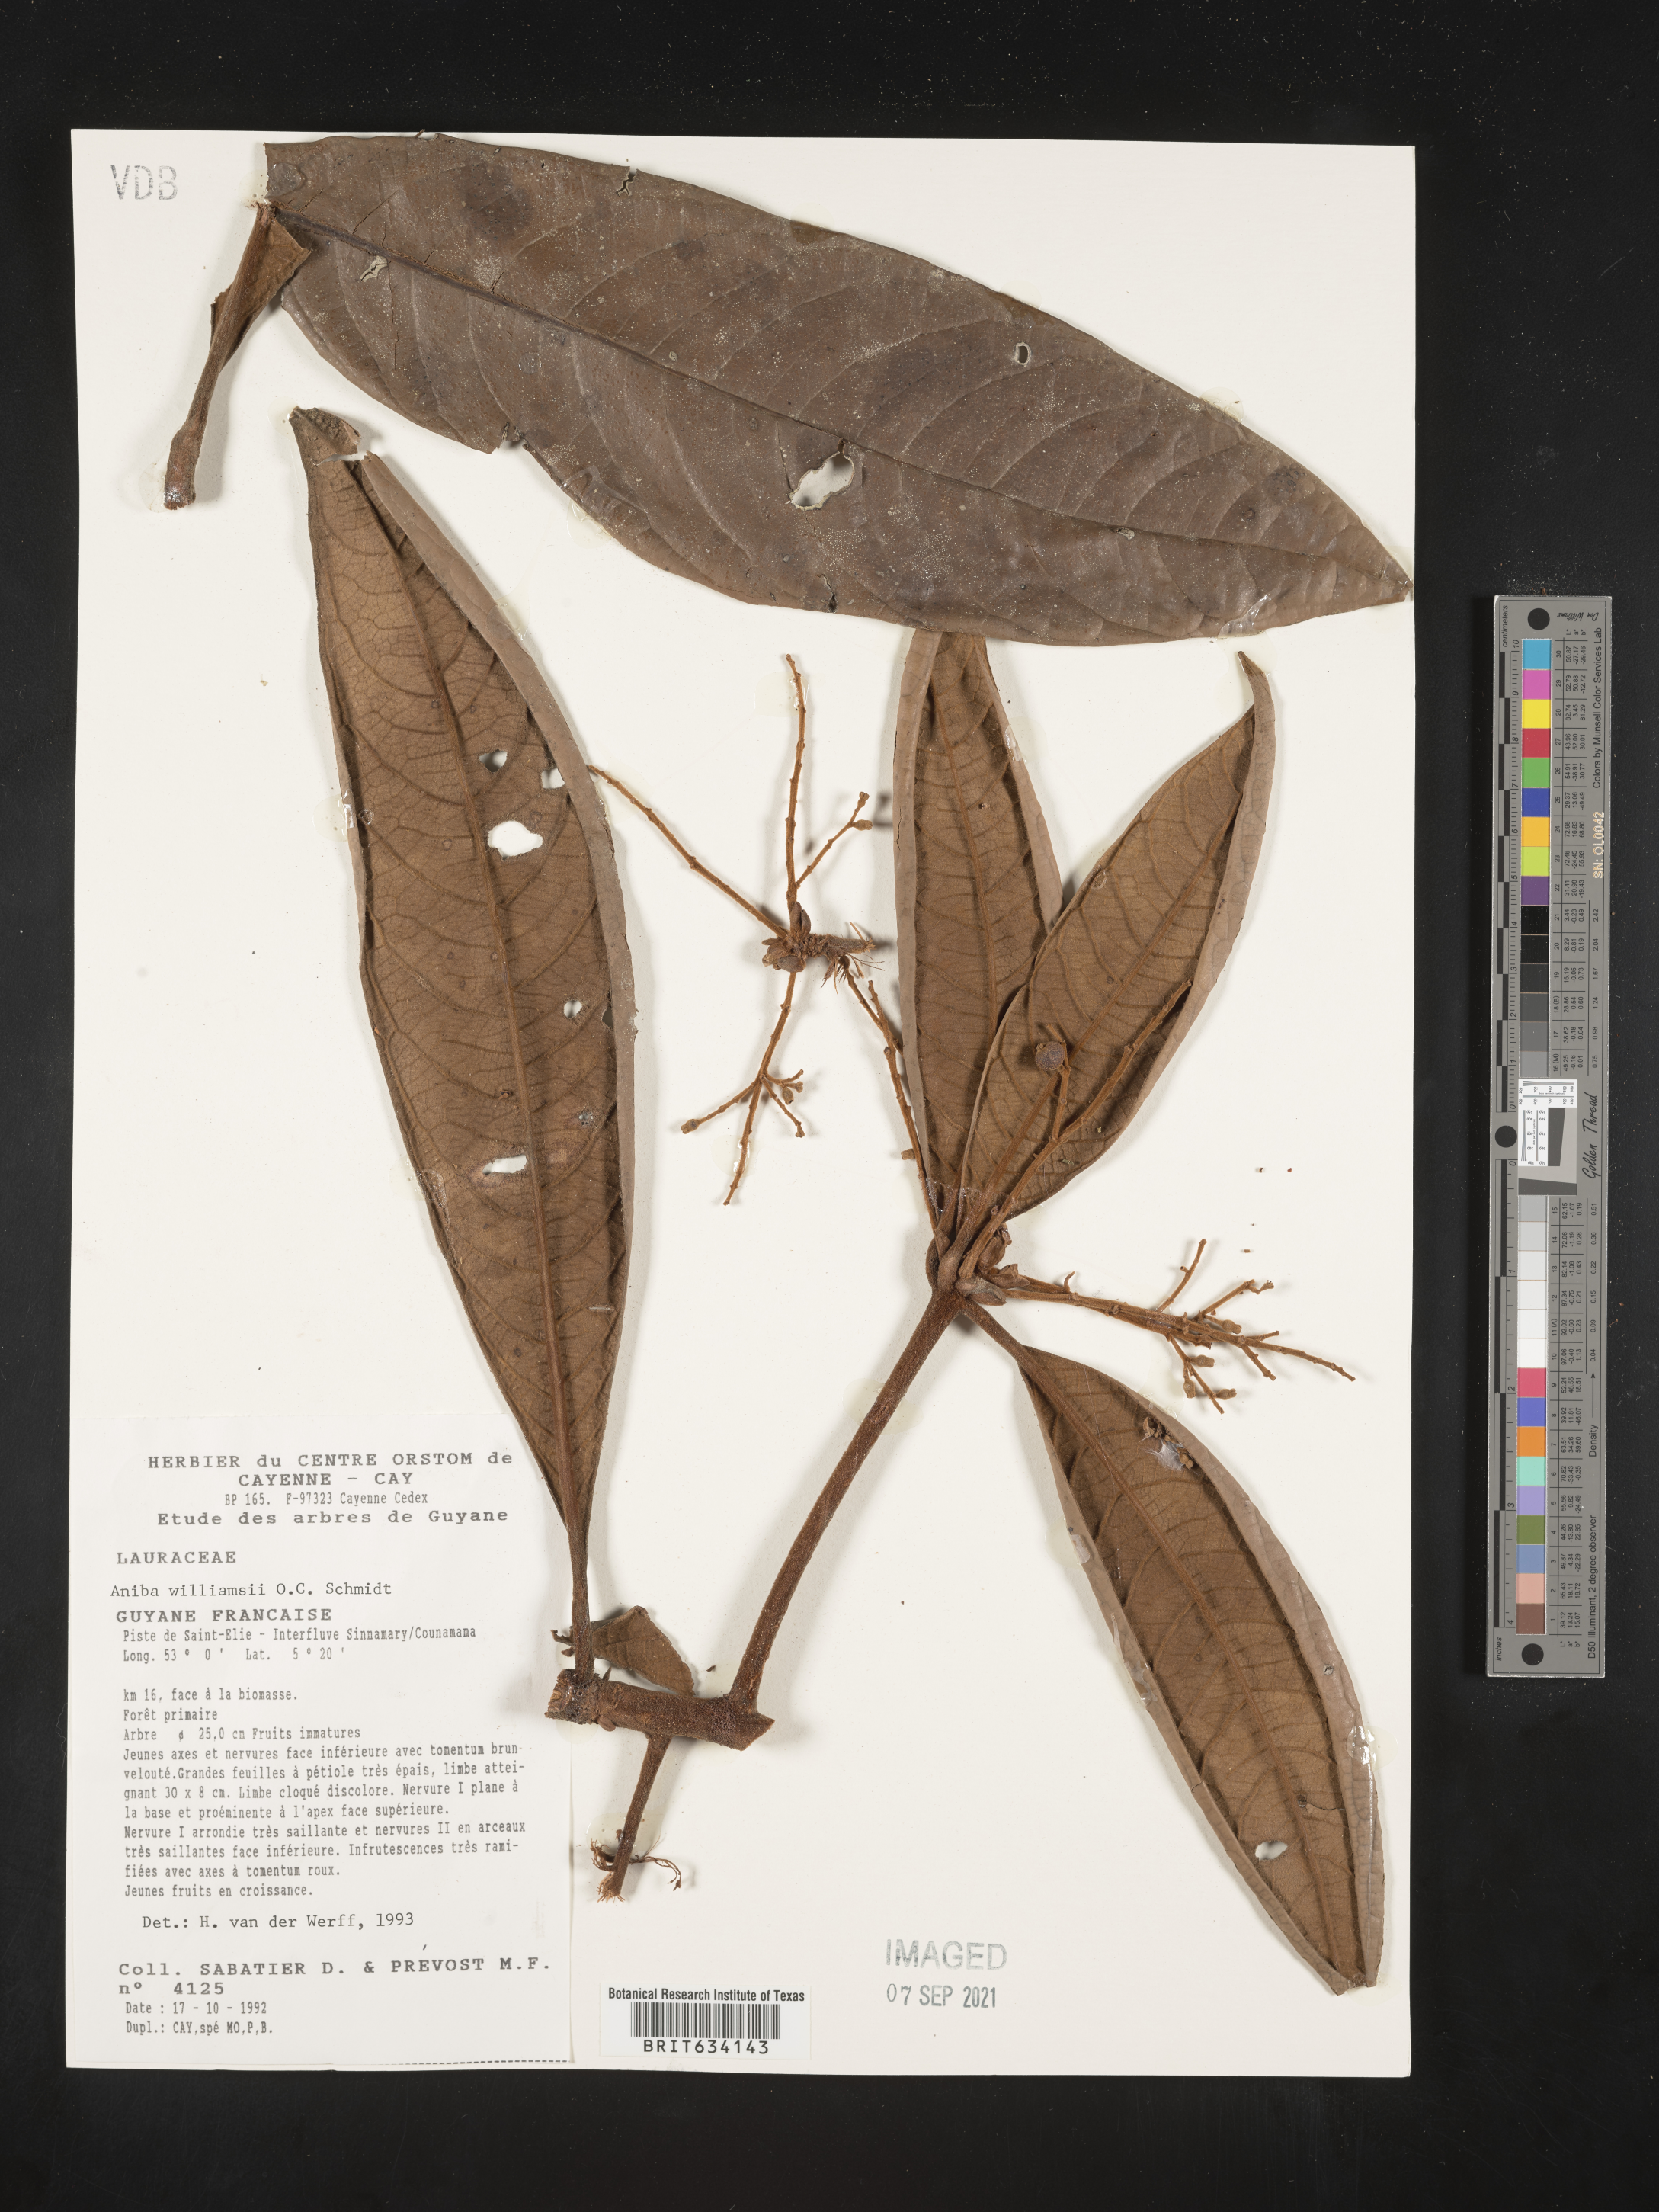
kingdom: Plantae
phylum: Tracheophyta
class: Magnoliopsida
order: Laurales
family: Lauraceae
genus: Aniba
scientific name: Aniba
